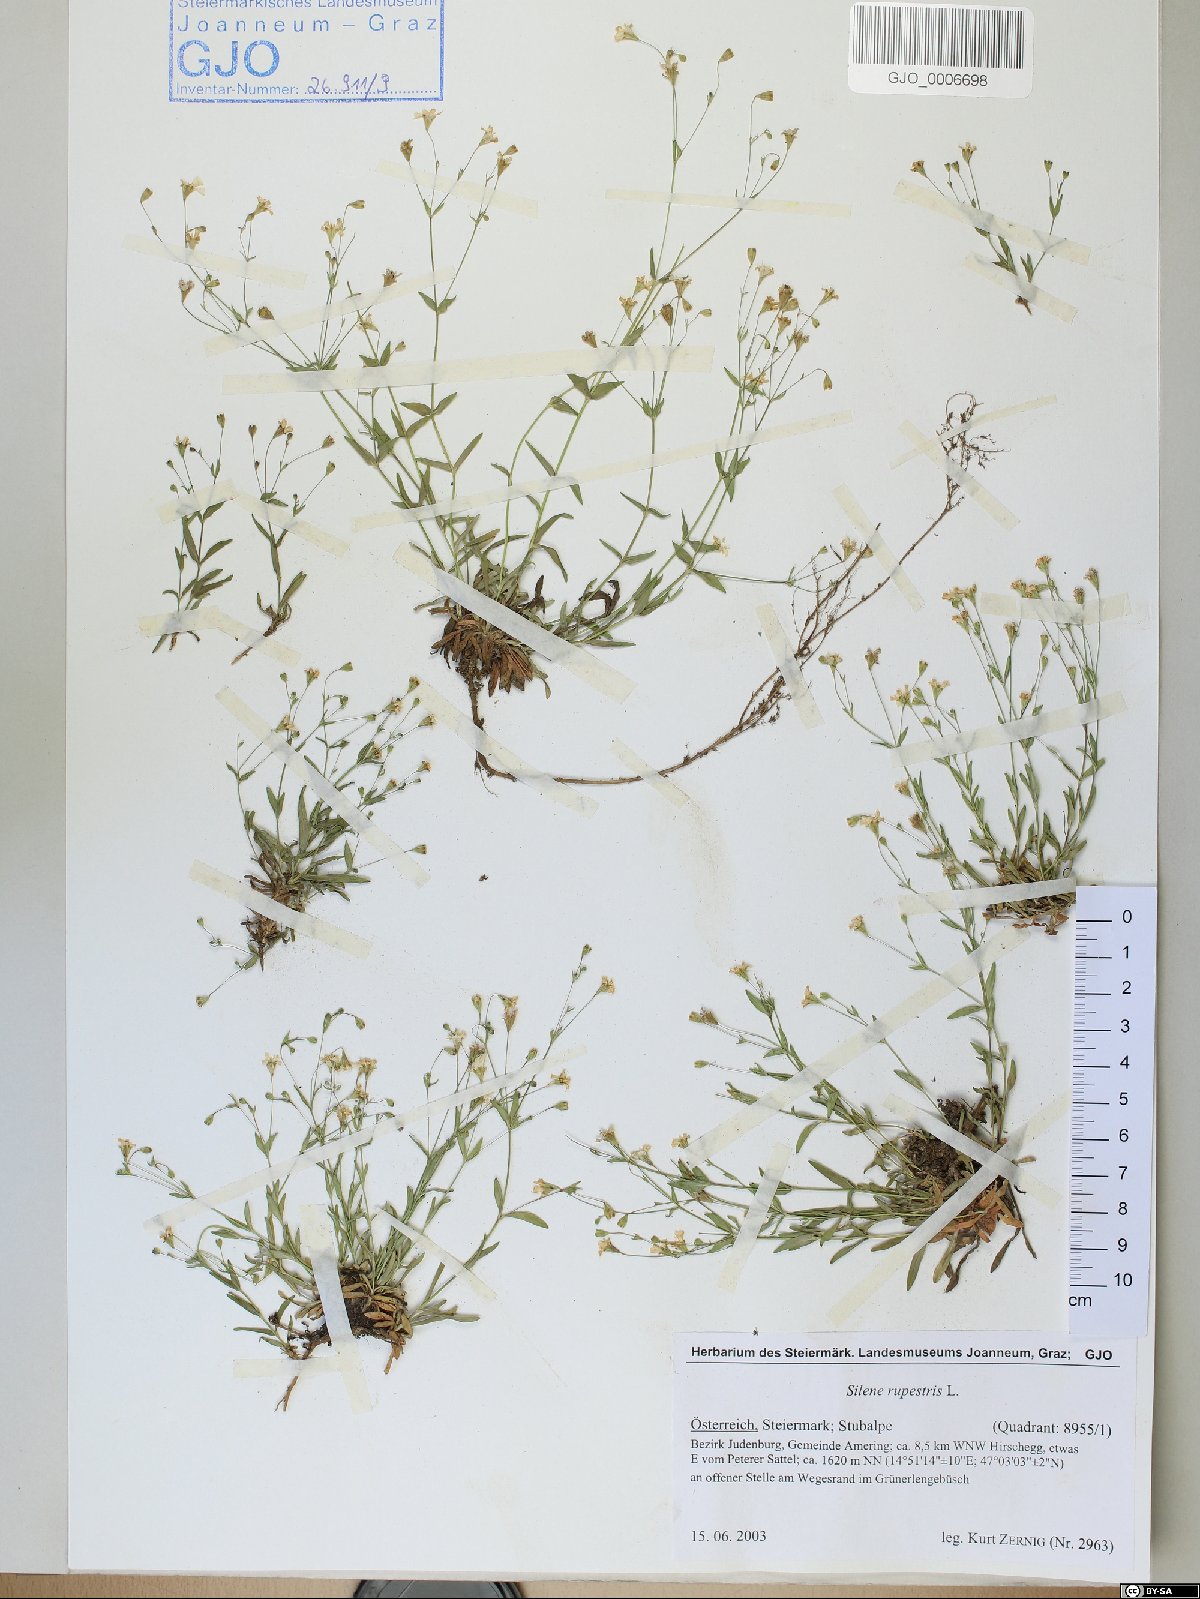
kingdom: Plantae
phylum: Tracheophyta
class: Magnoliopsida
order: Caryophyllales
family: Caryophyllaceae
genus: Atocion
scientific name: Atocion rupestre
